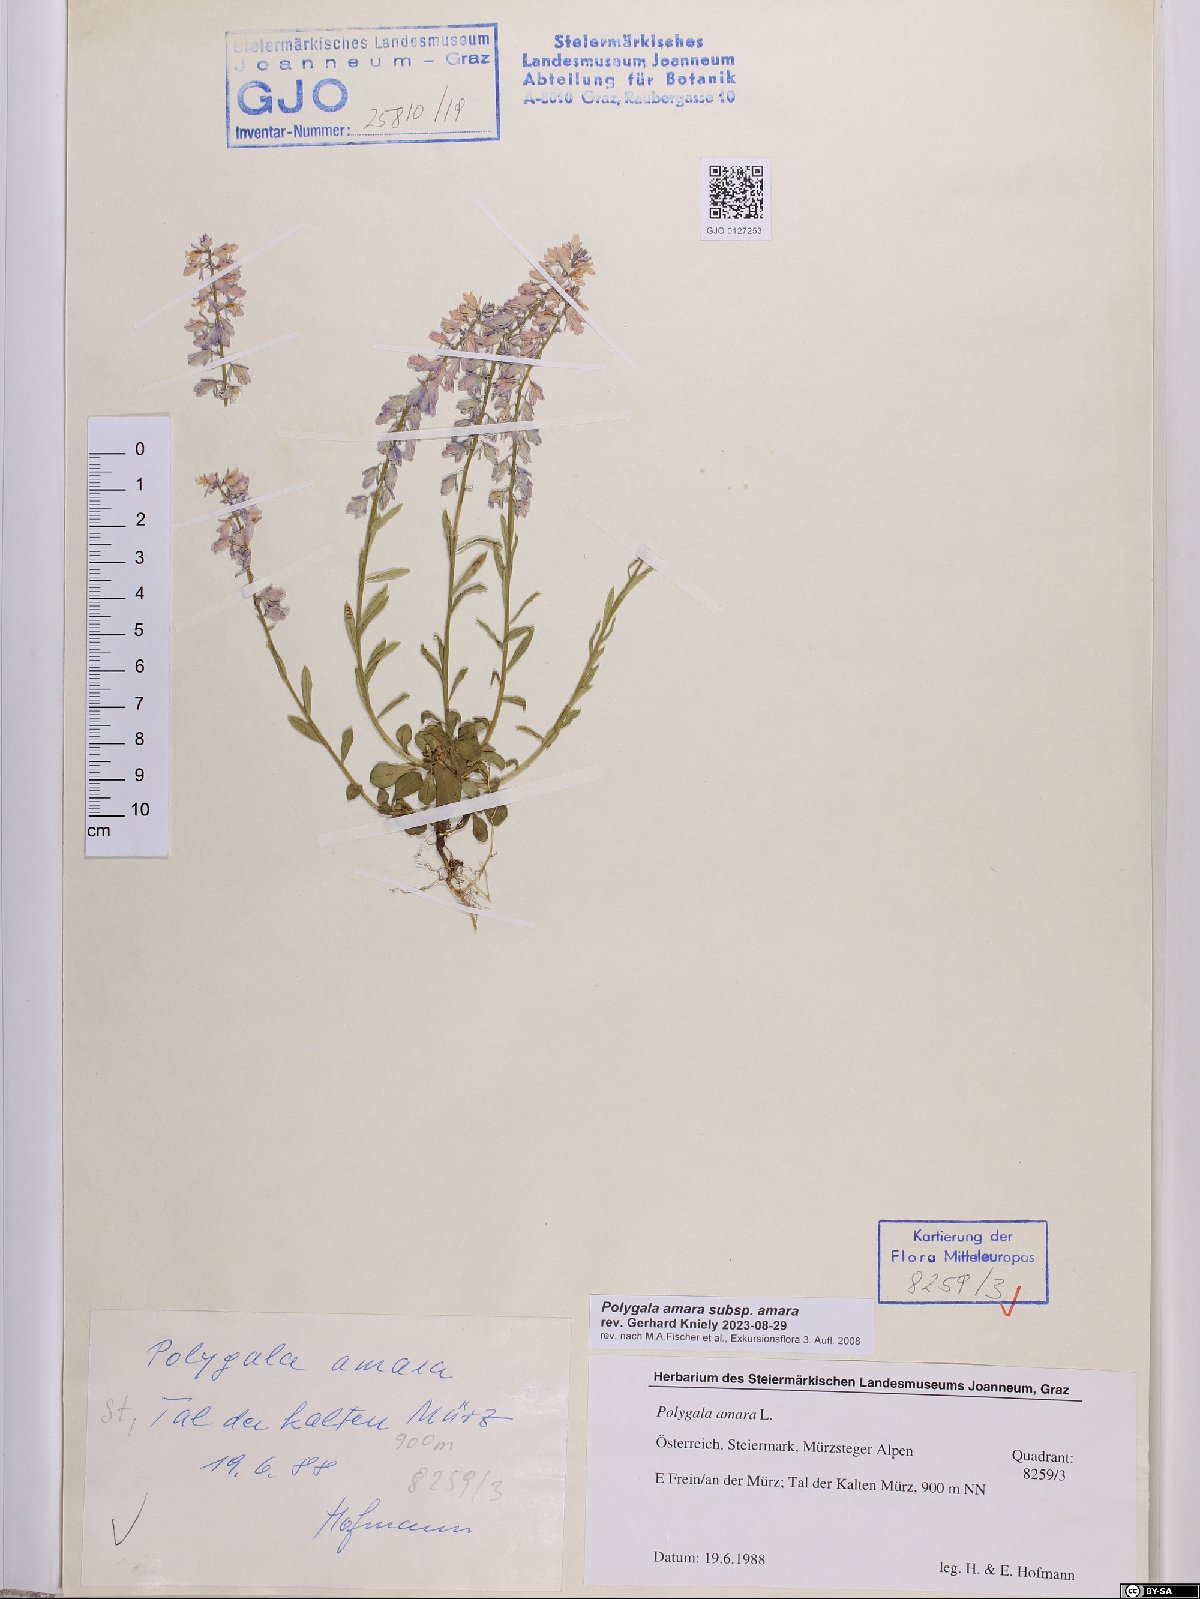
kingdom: Plantae
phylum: Tracheophyta
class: Magnoliopsida
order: Fabales
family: Polygalaceae
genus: Polygala
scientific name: Polygala amara
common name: Milkwort
